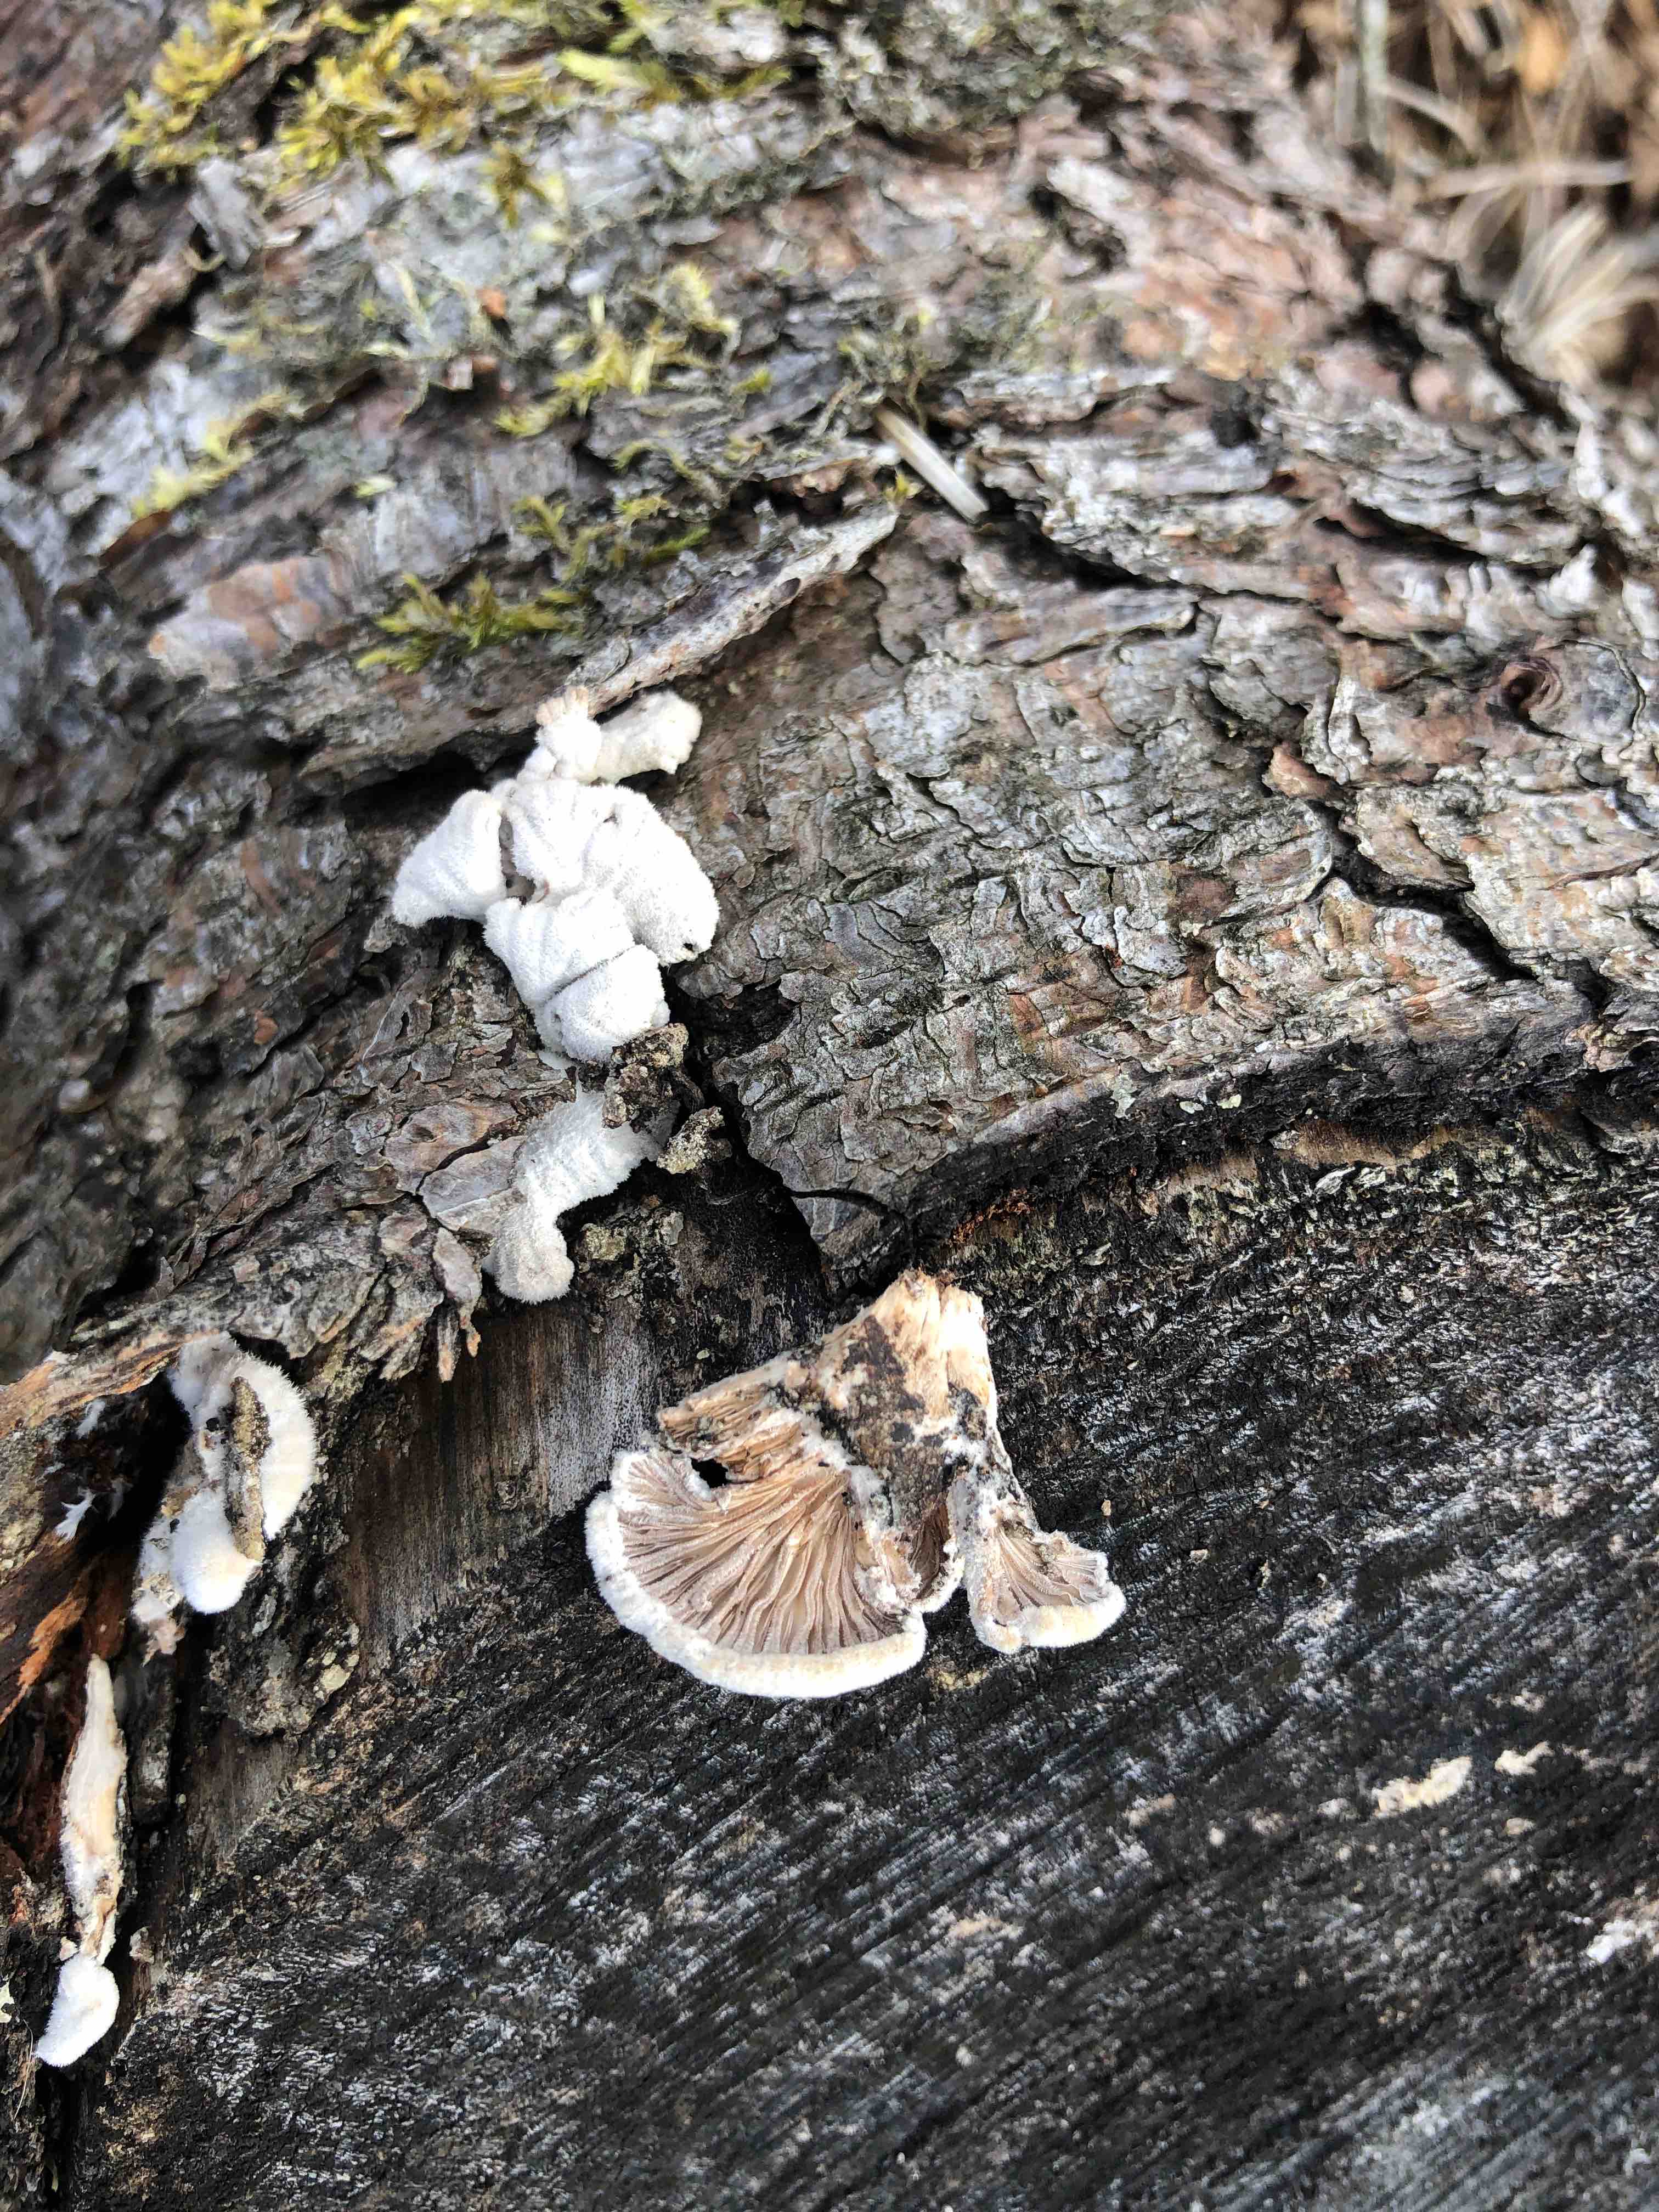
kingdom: Fungi
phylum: Basidiomycota
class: Agaricomycetes
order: Agaricales
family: Schizophyllaceae
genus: Schizophyllum
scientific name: Schizophyllum commune
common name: kløvblad
